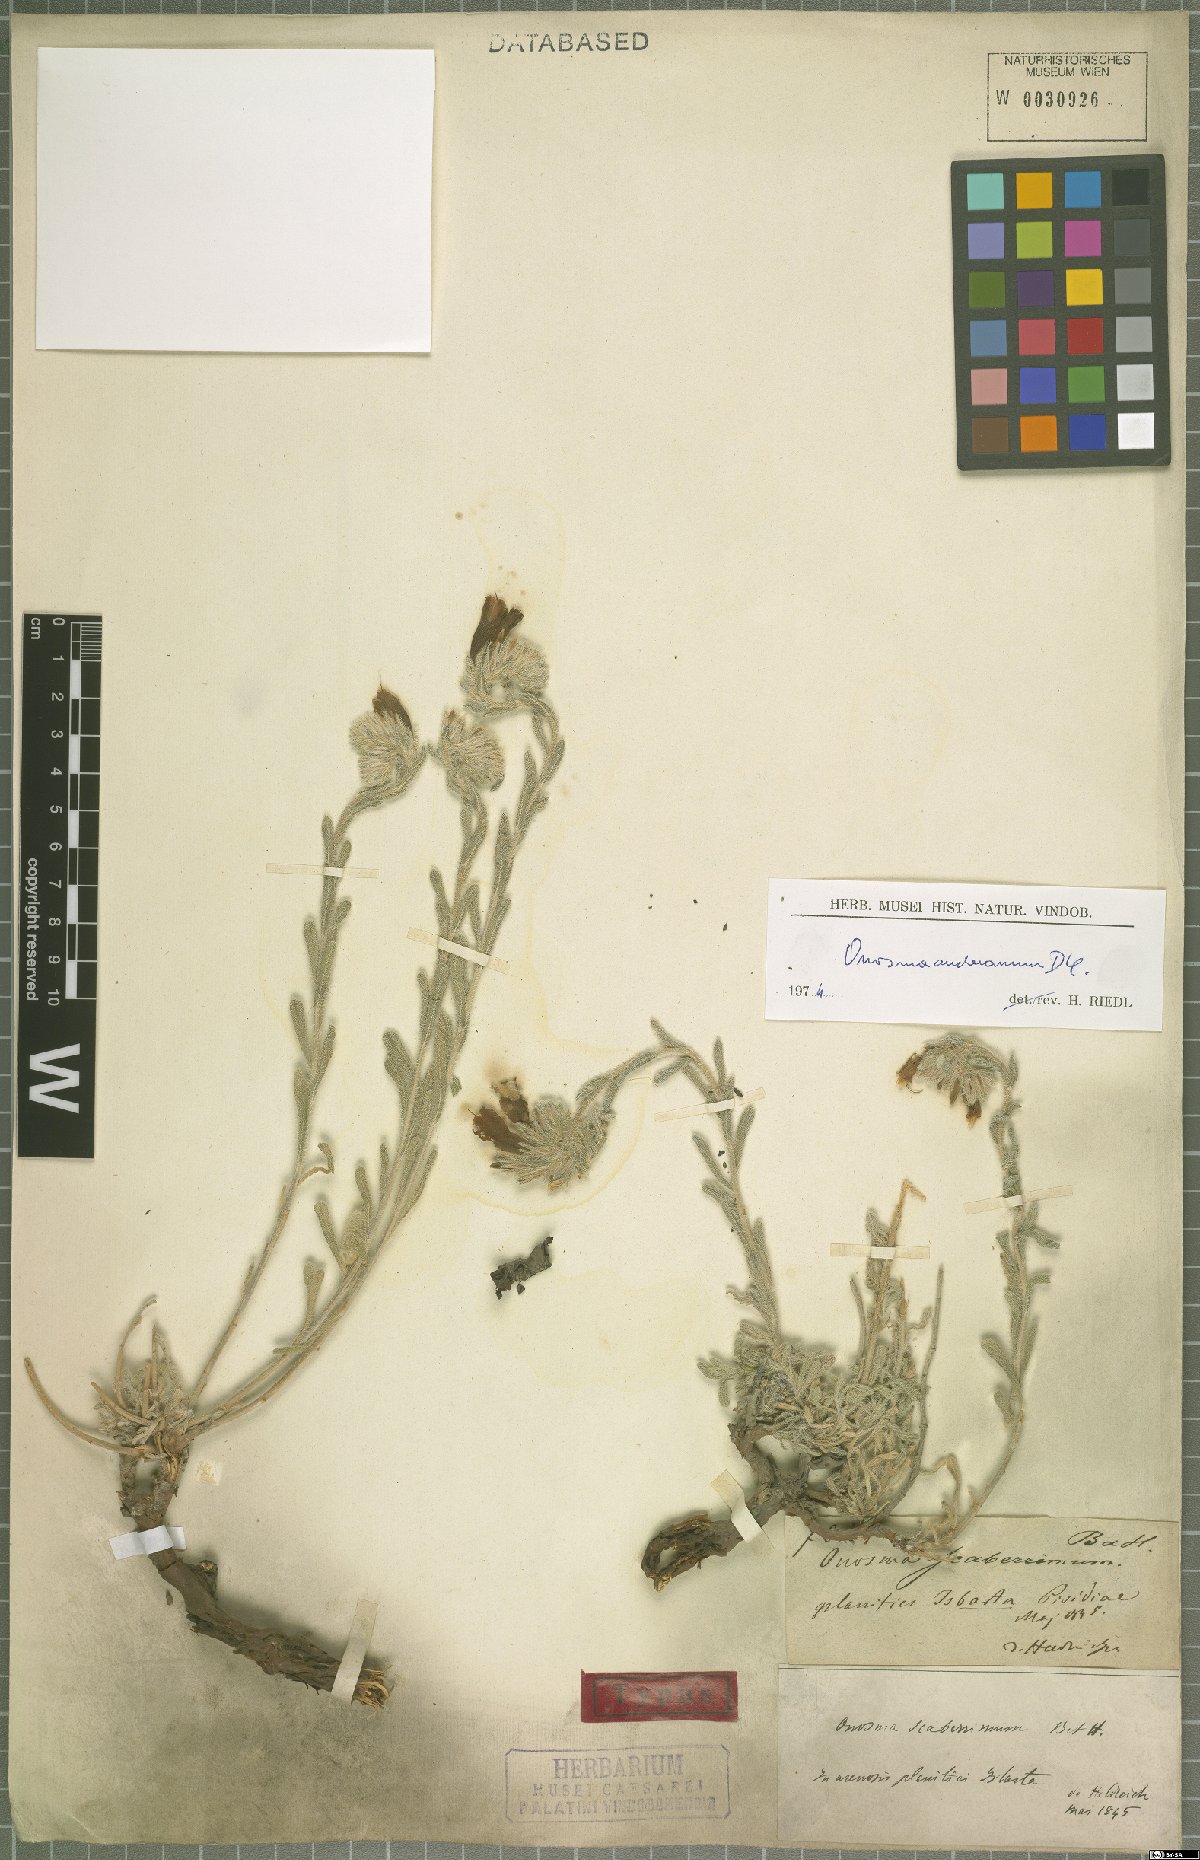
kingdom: Plantae
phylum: Tracheophyta
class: Magnoliopsida
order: Boraginales
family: Boraginaceae
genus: Onosma
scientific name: Onosma stellulata
